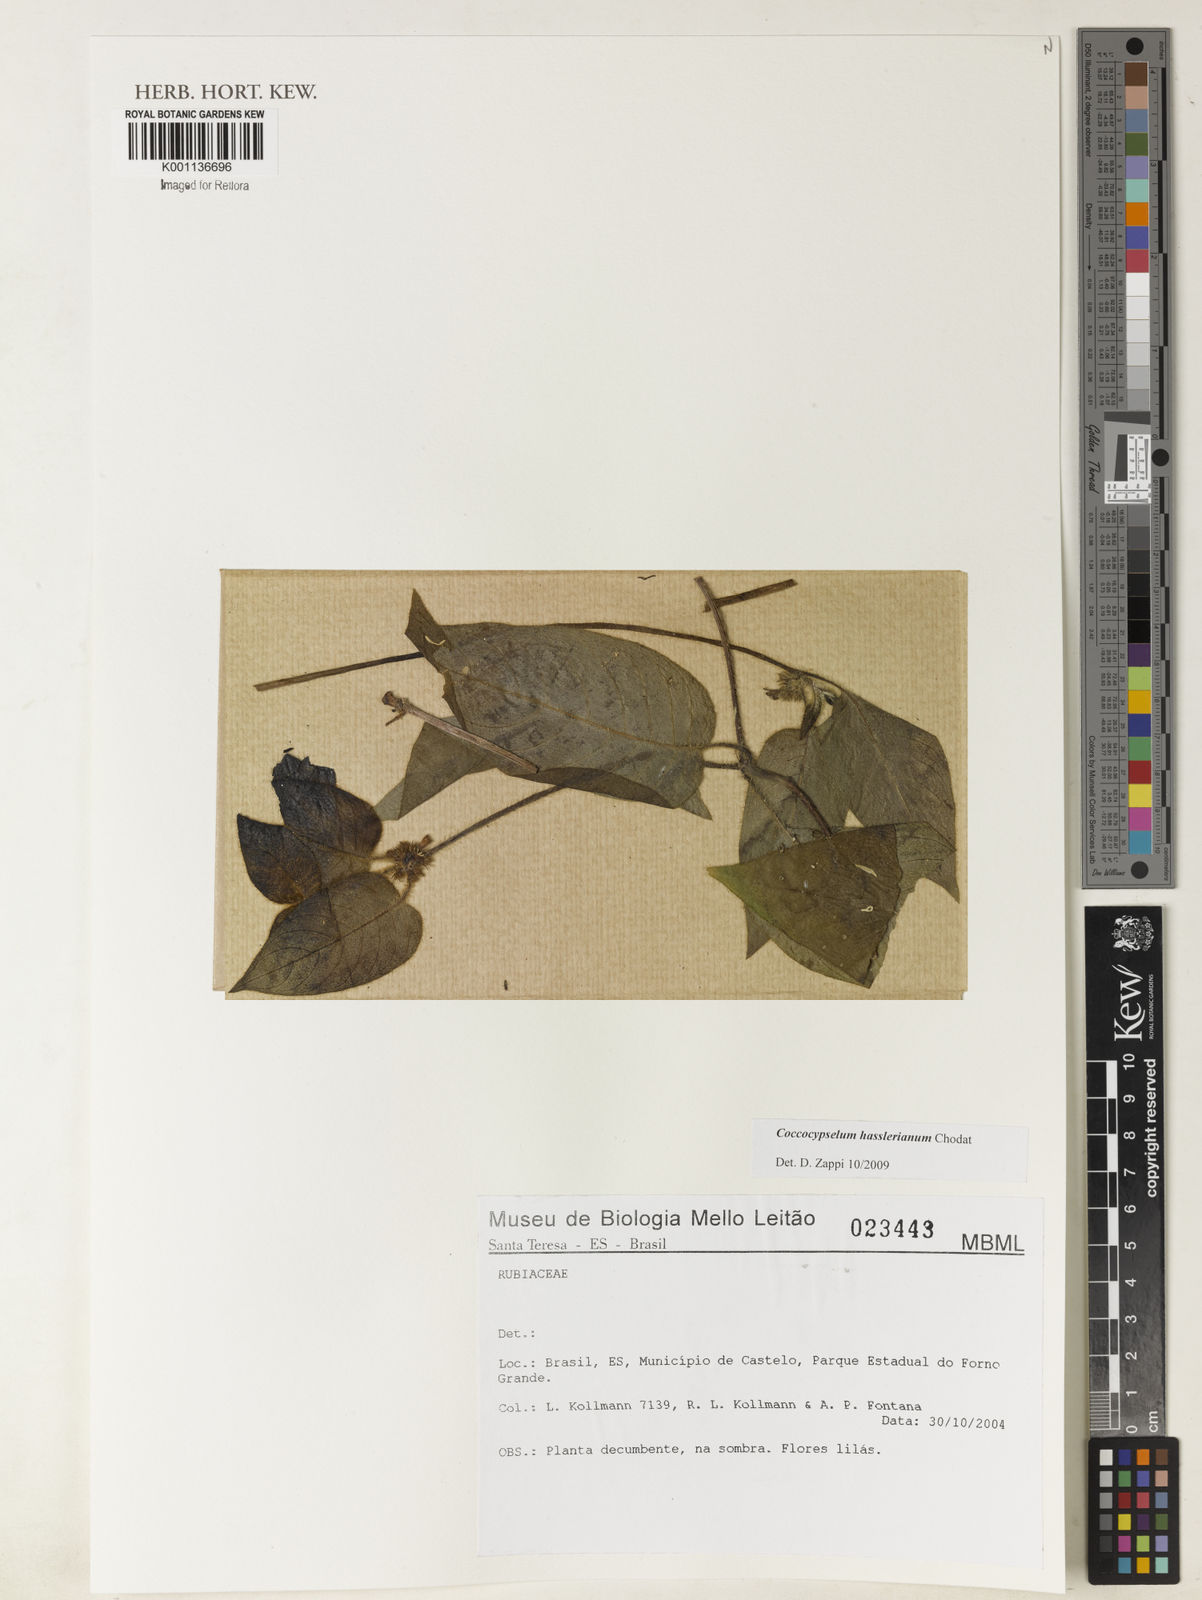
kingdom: Plantae
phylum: Tracheophyta
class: Magnoliopsida
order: Gentianales
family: Rubiaceae
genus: Coccocypselum
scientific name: Coccocypselum hasslerianum
